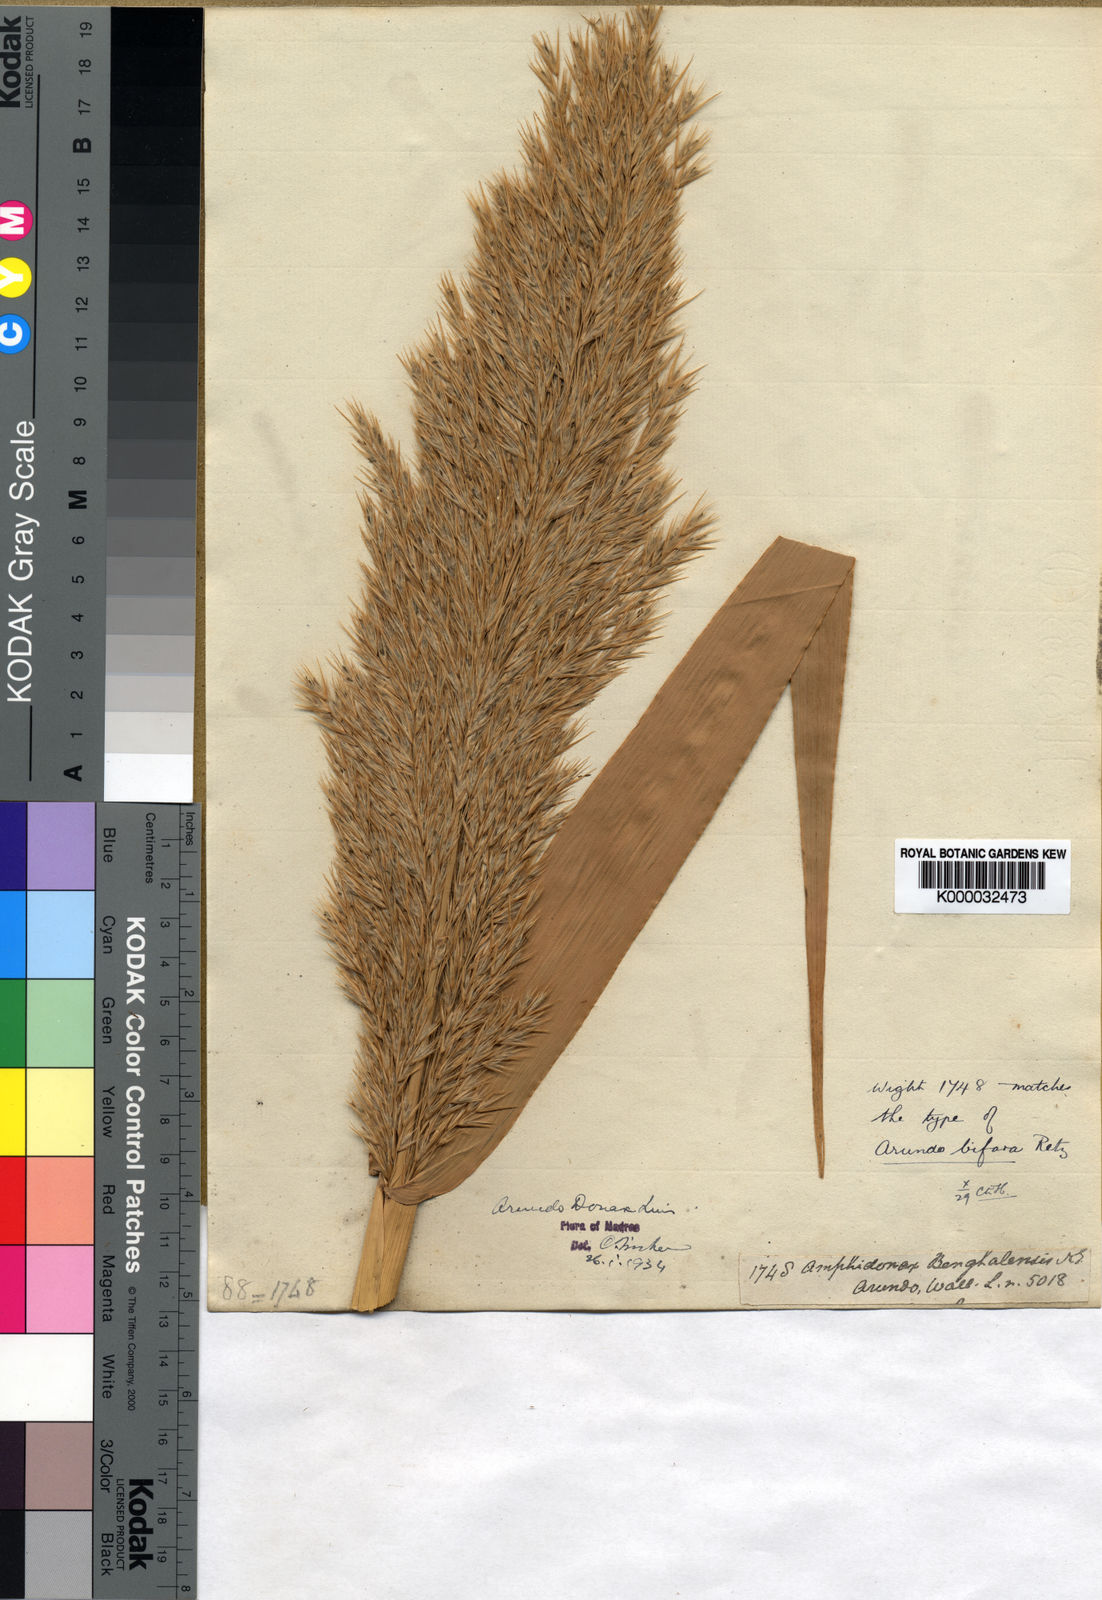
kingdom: Plantae
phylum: Tracheophyta
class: Liliopsida
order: Poales
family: Poaceae
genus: Arundo
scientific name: Arundo donax
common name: Giant reed
